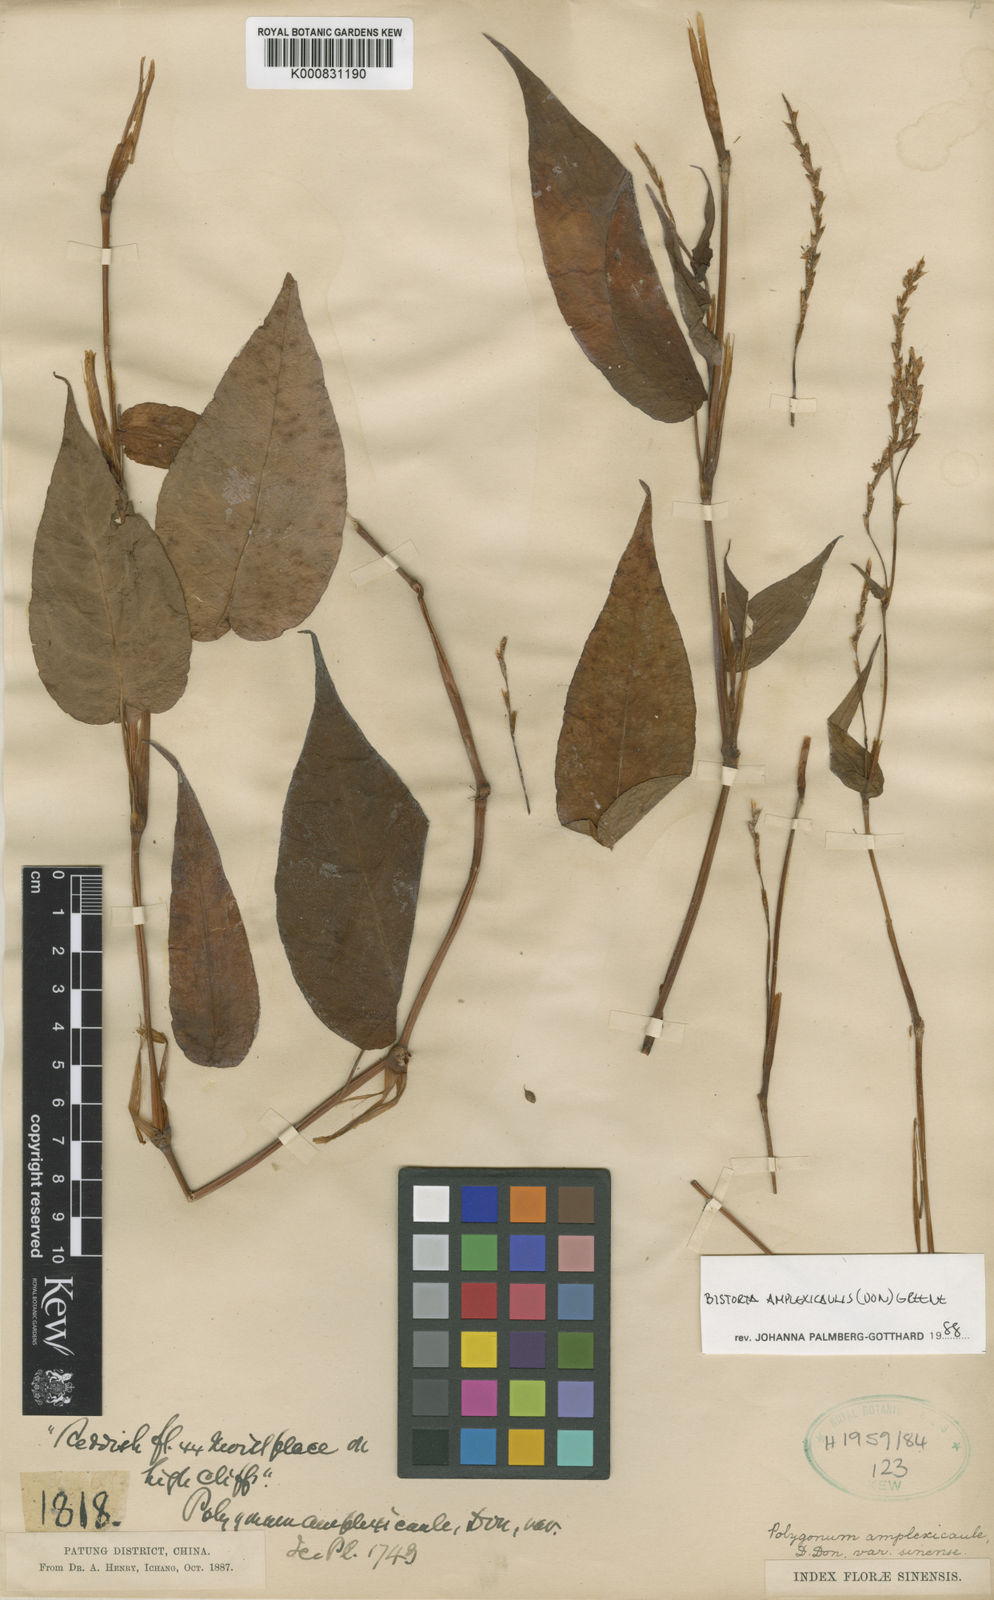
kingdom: Plantae
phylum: Tracheophyta
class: Magnoliopsida
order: Caryophyllales
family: Polygonaceae
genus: Bistorta
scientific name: Bistorta amplexicaulis
